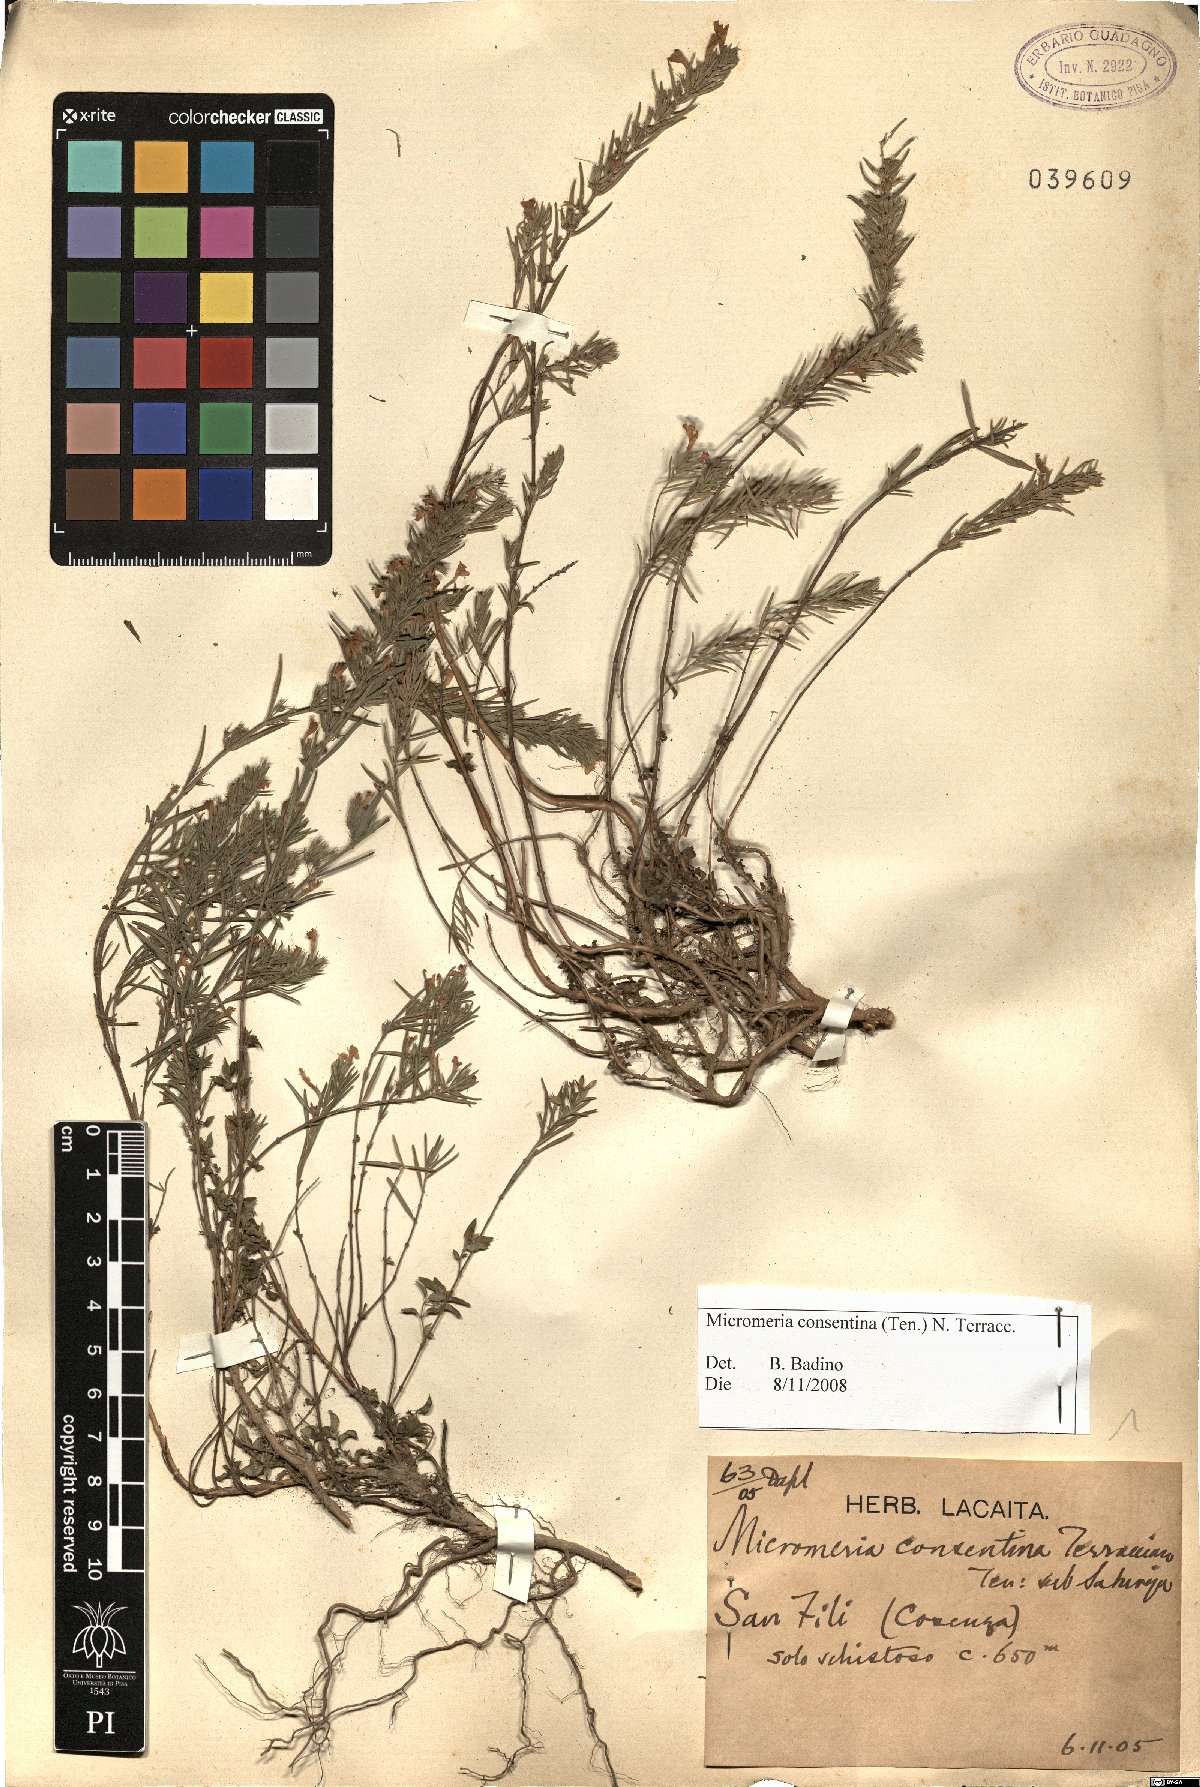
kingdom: Plantae
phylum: Tracheophyta
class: Magnoliopsida
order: Lamiales
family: Lamiaceae
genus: Micromeria
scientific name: Micromeria
